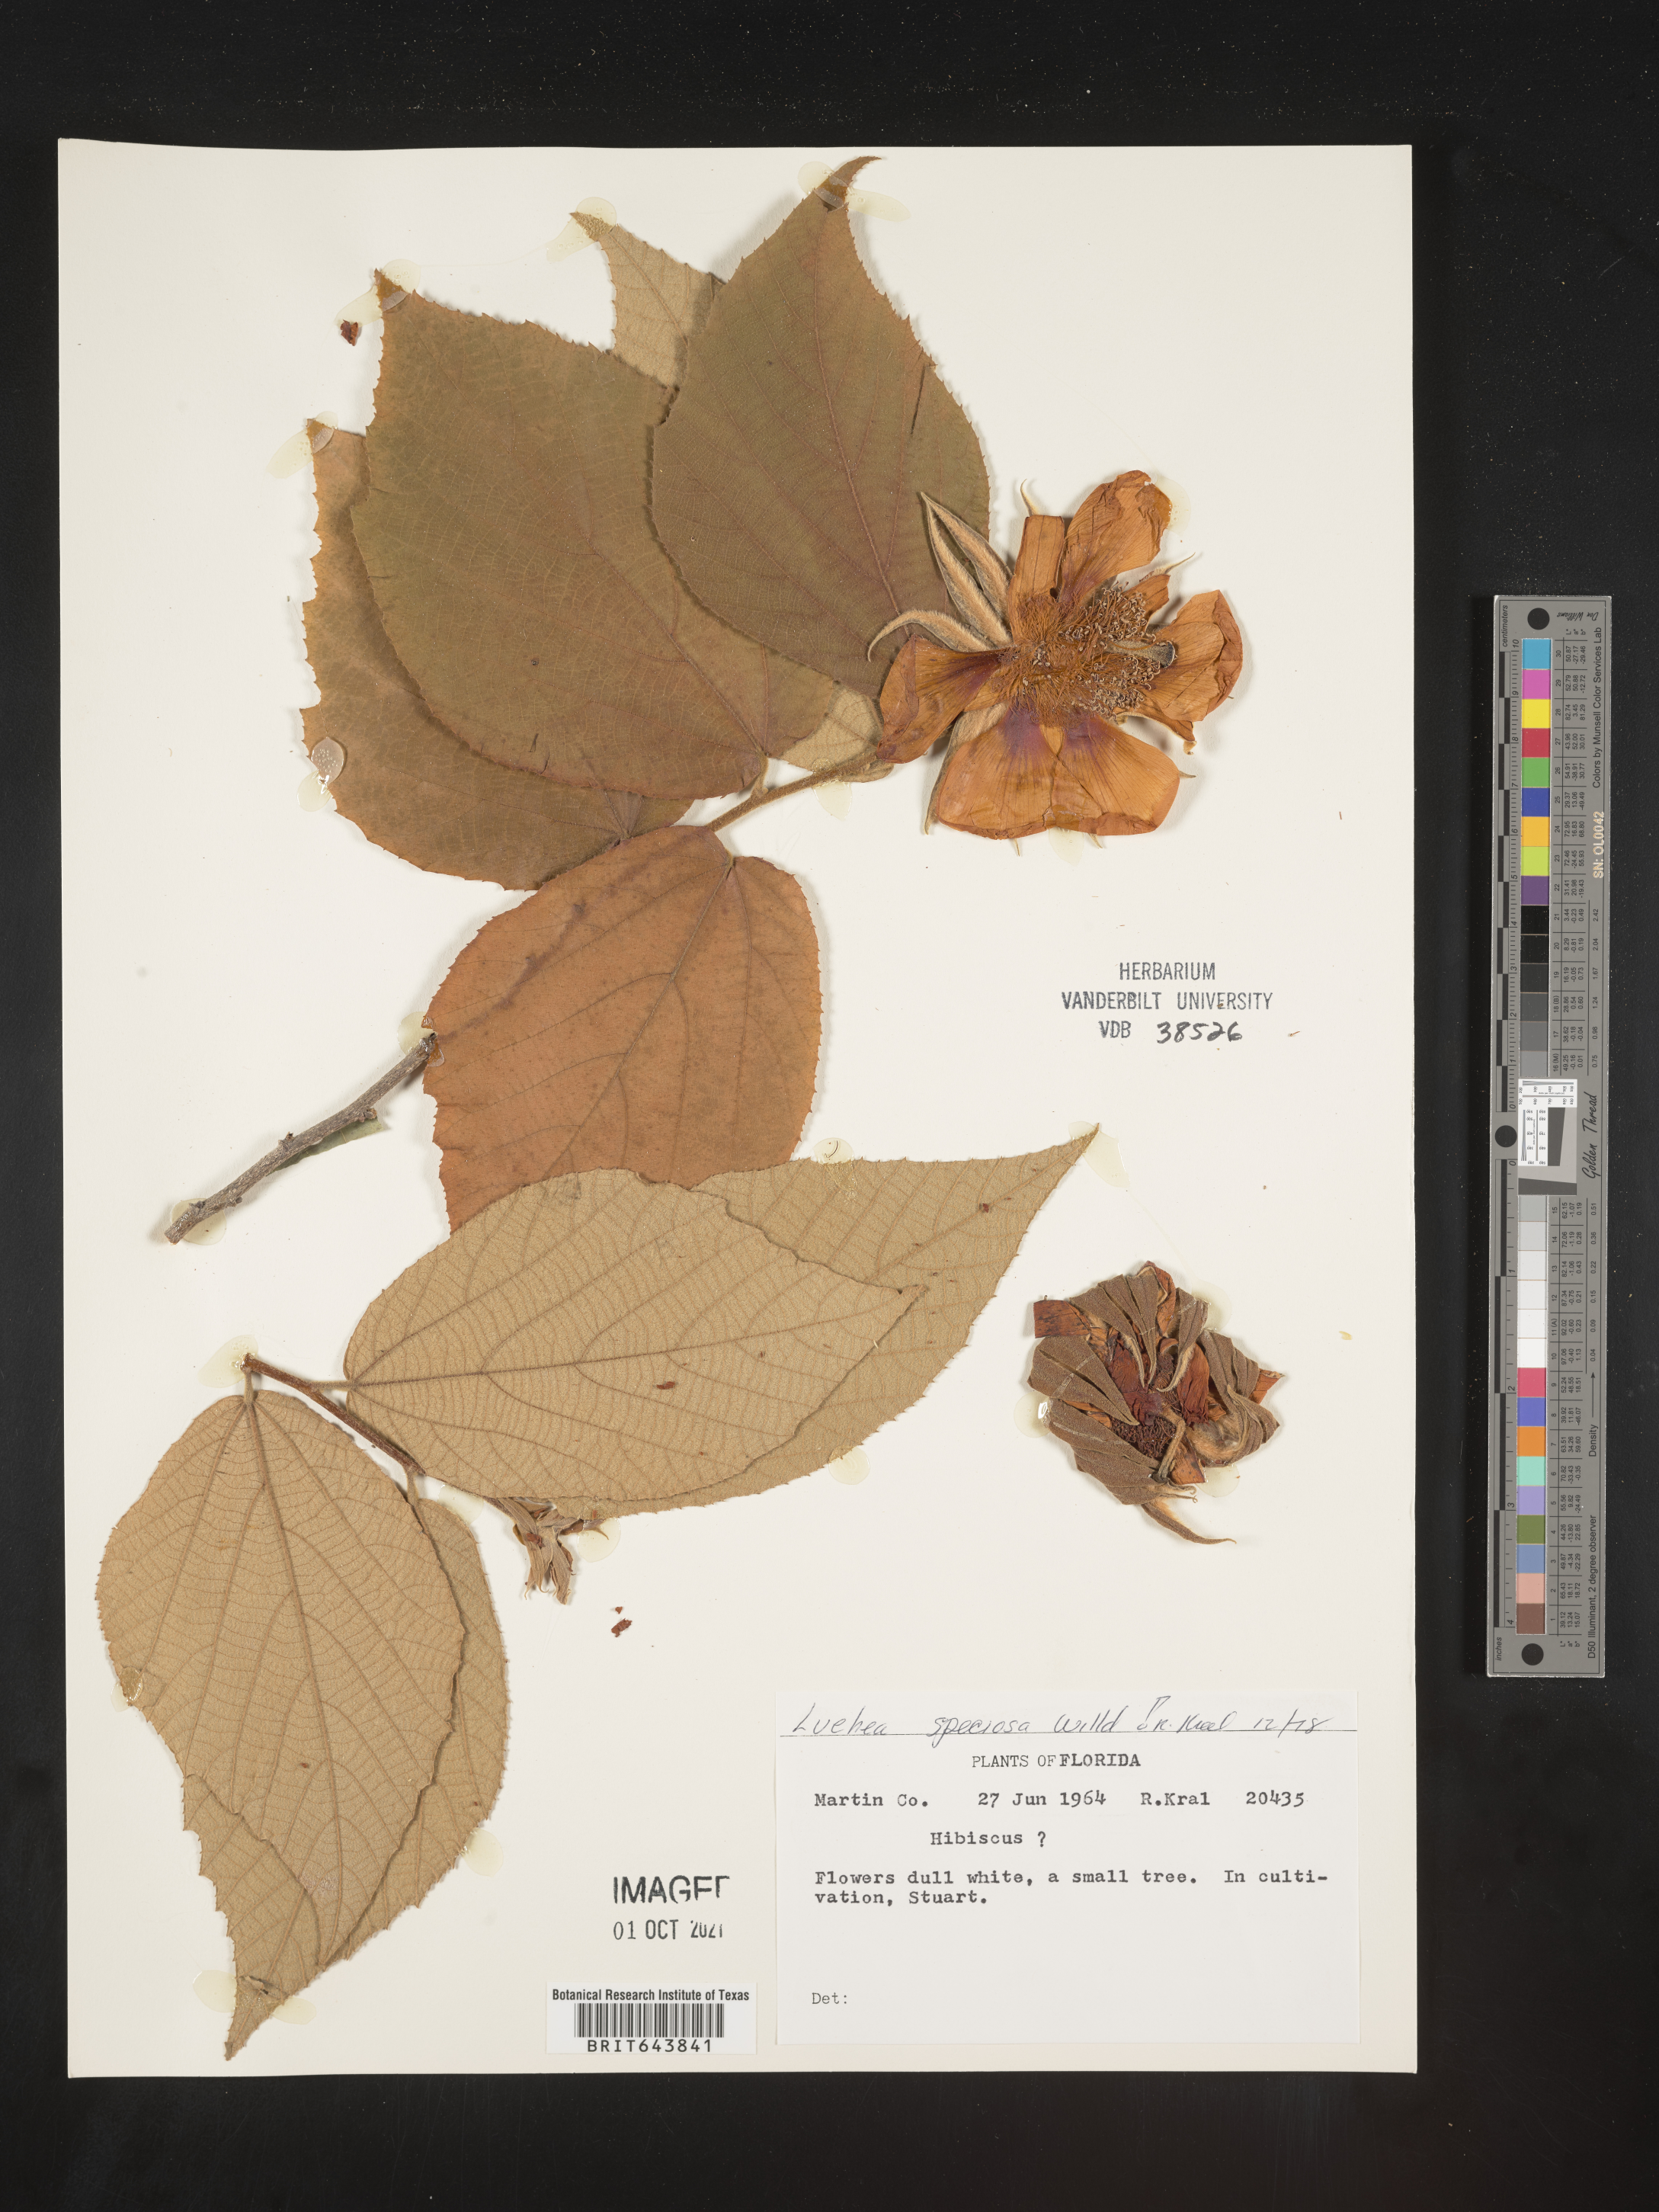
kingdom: Plantae
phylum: Tracheophyta
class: Magnoliopsida
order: Malvales
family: Malvaceae
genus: Luehea
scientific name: Luehea
